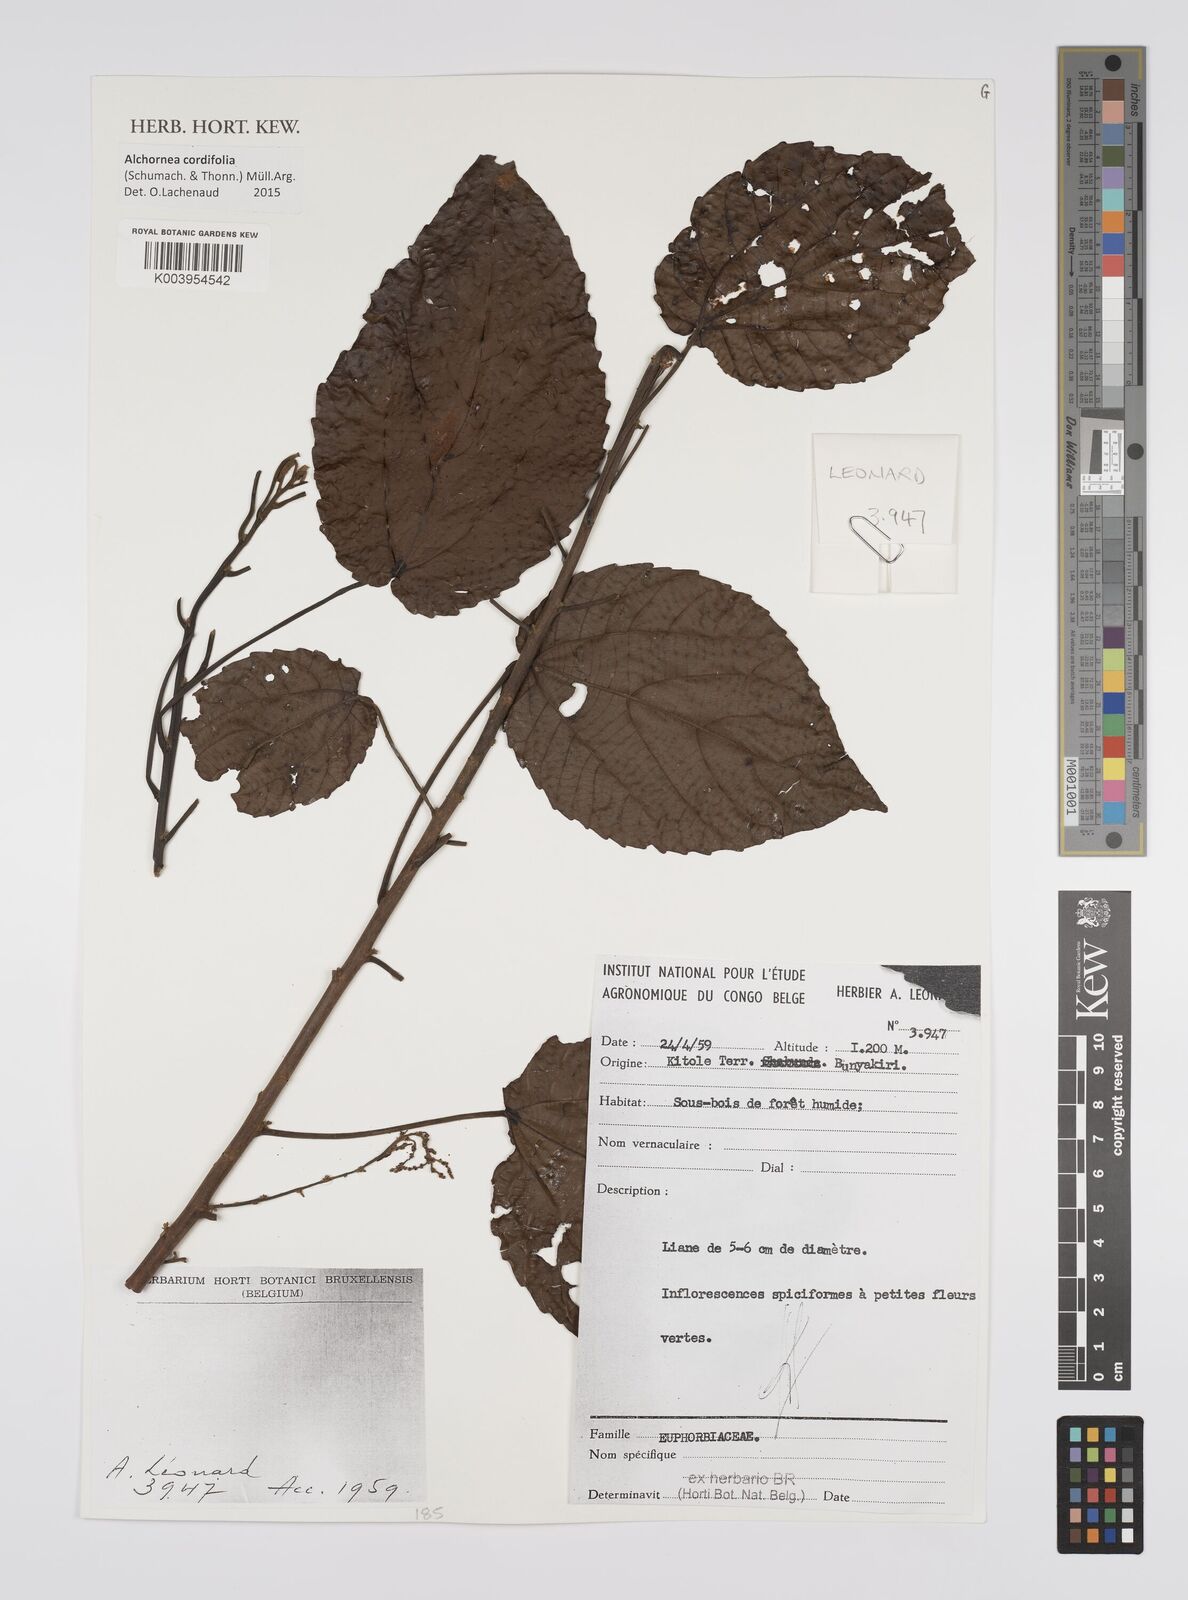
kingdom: Plantae
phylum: Tracheophyta
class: Magnoliopsida
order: Malpighiales
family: Euphorbiaceae
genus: Alchornea
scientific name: Alchornea cordifolia
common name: Christmasbush
